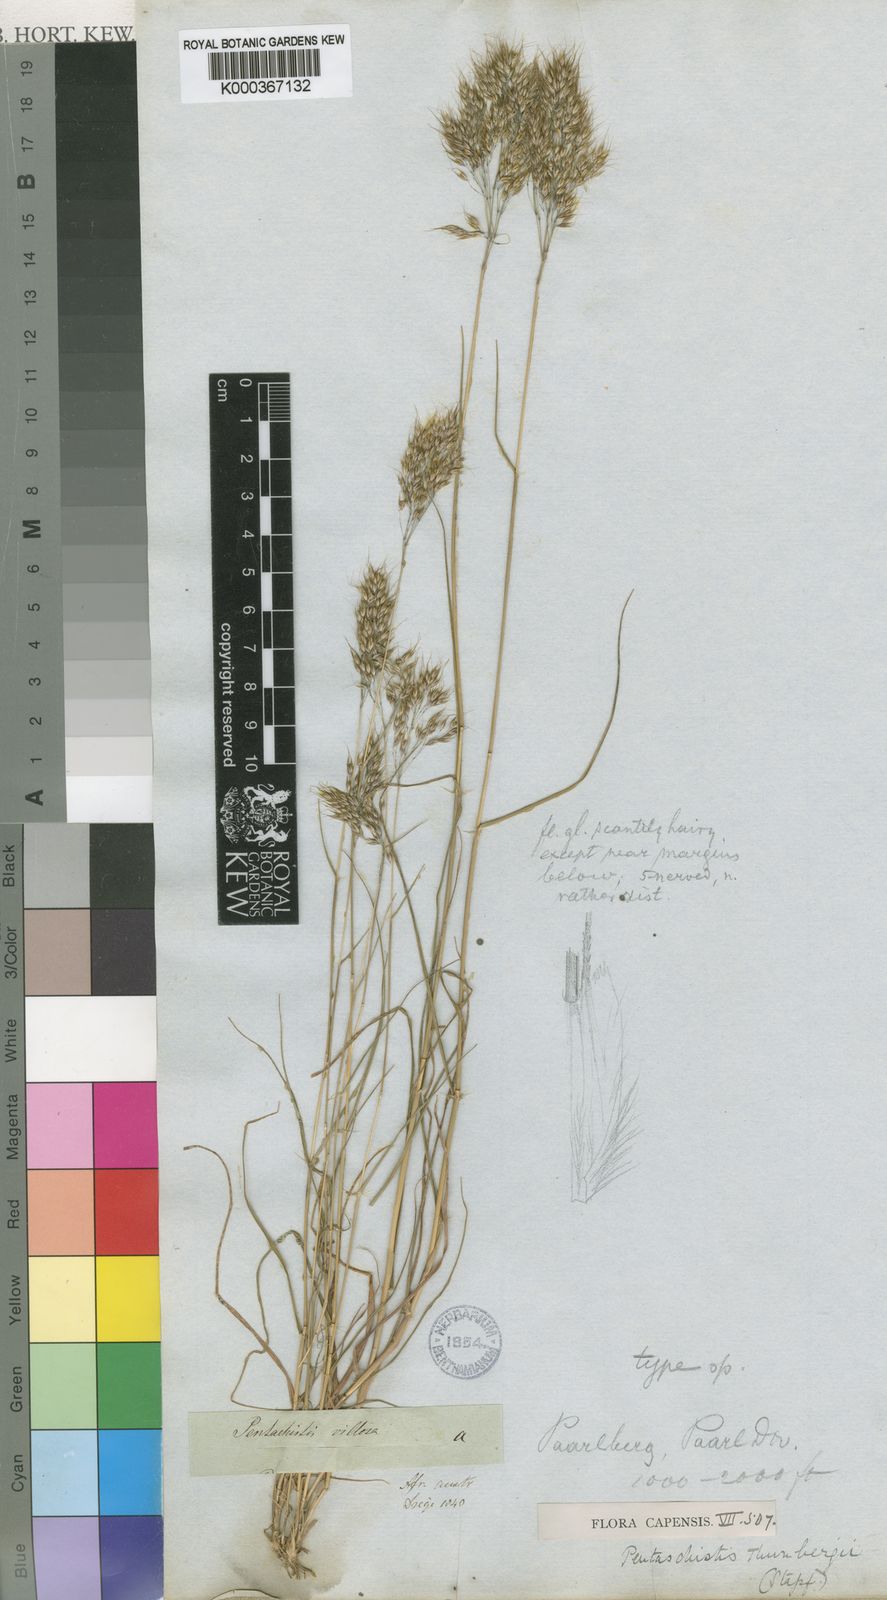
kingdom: Plantae
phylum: Tracheophyta
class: Liliopsida
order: Poales
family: Poaceae
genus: Pentameris
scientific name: Pentameris triseta
